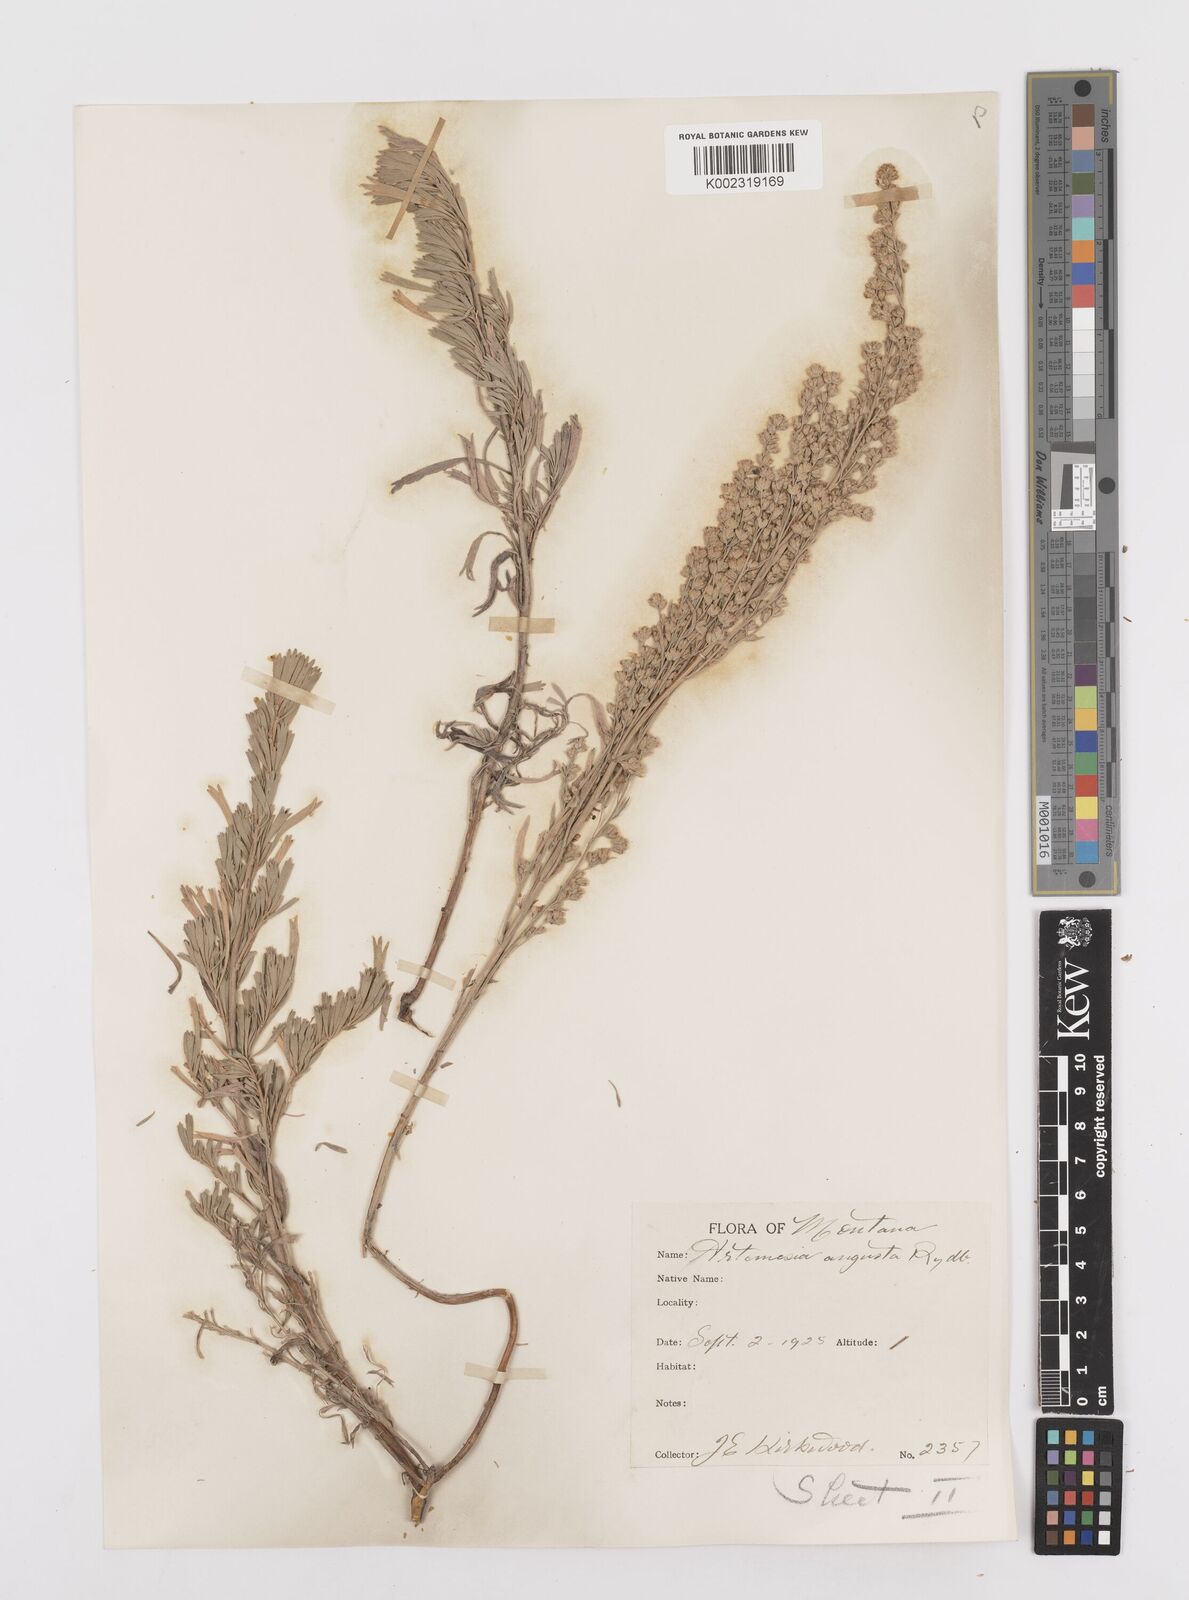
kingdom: Plantae
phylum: Tracheophyta
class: Magnoliopsida
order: Asterales
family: Asteraceae
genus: Artemisia
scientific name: Artemisia tridentata
